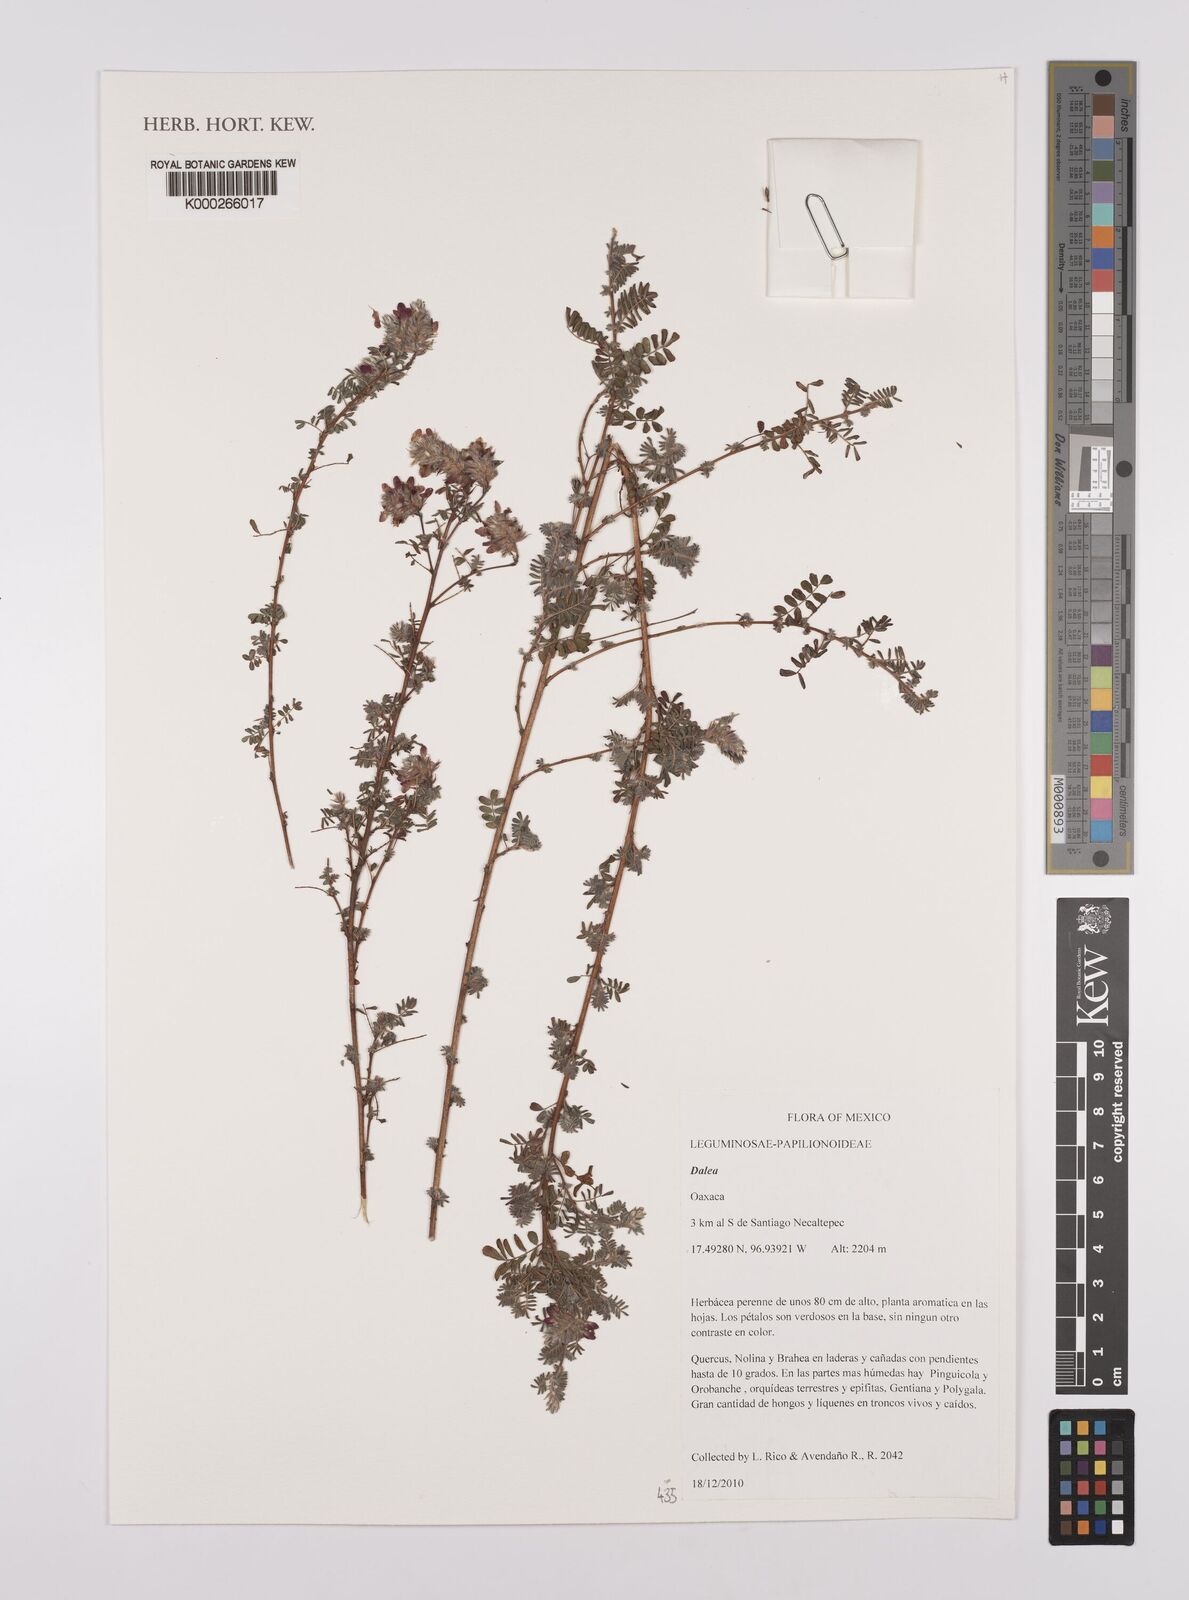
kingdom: Plantae
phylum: Tracheophyta
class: Magnoliopsida
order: Fabales
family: Fabaceae
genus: Dalea
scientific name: Dalea
